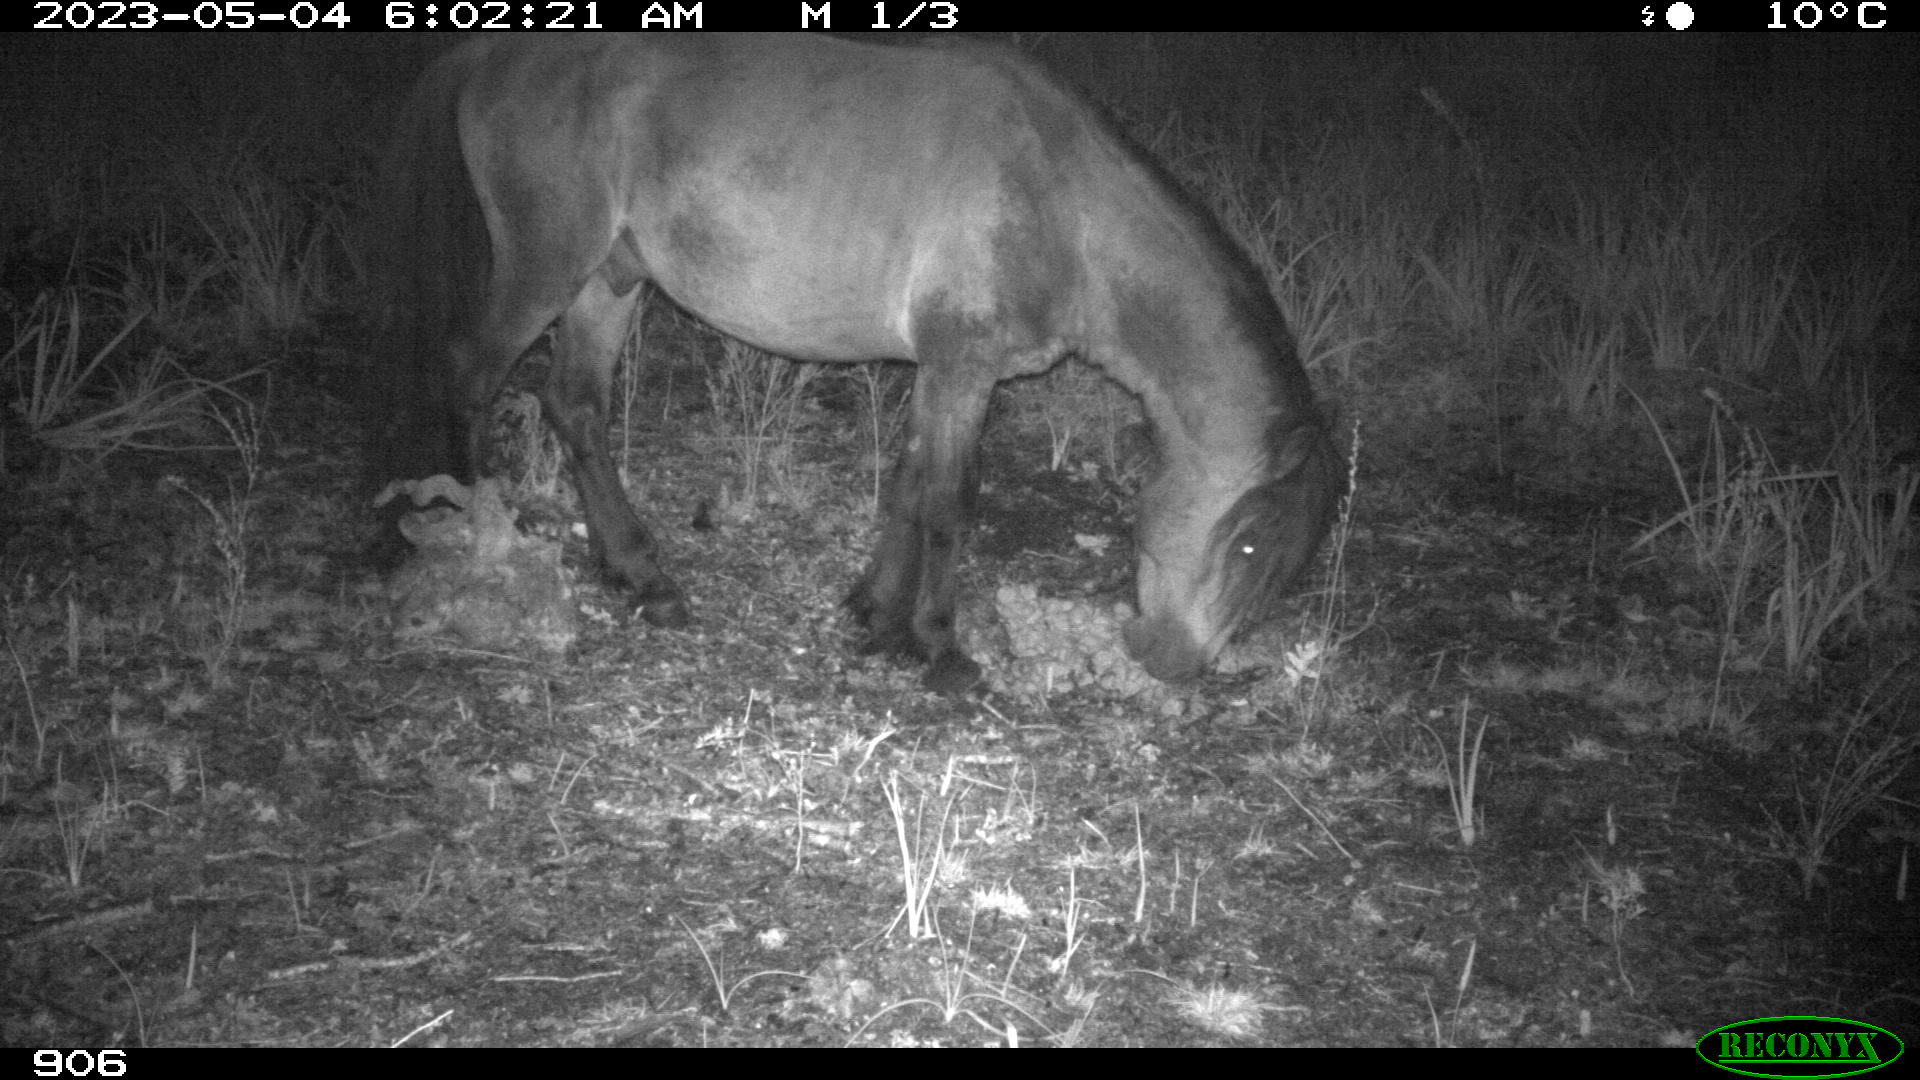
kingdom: Animalia
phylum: Chordata
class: Mammalia
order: Perissodactyla
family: Equidae
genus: Equus
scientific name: Equus caballus
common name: Horse
